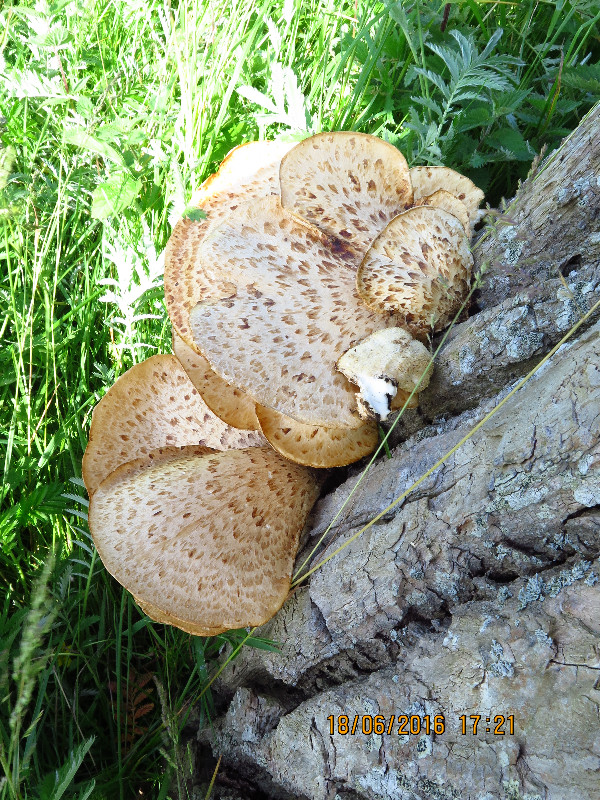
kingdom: Fungi
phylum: Basidiomycota
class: Agaricomycetes
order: Polyporales
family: Polyporaceae
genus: Cerioporus
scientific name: Cerioporus squamosus
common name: skællet stilkporesvamp
